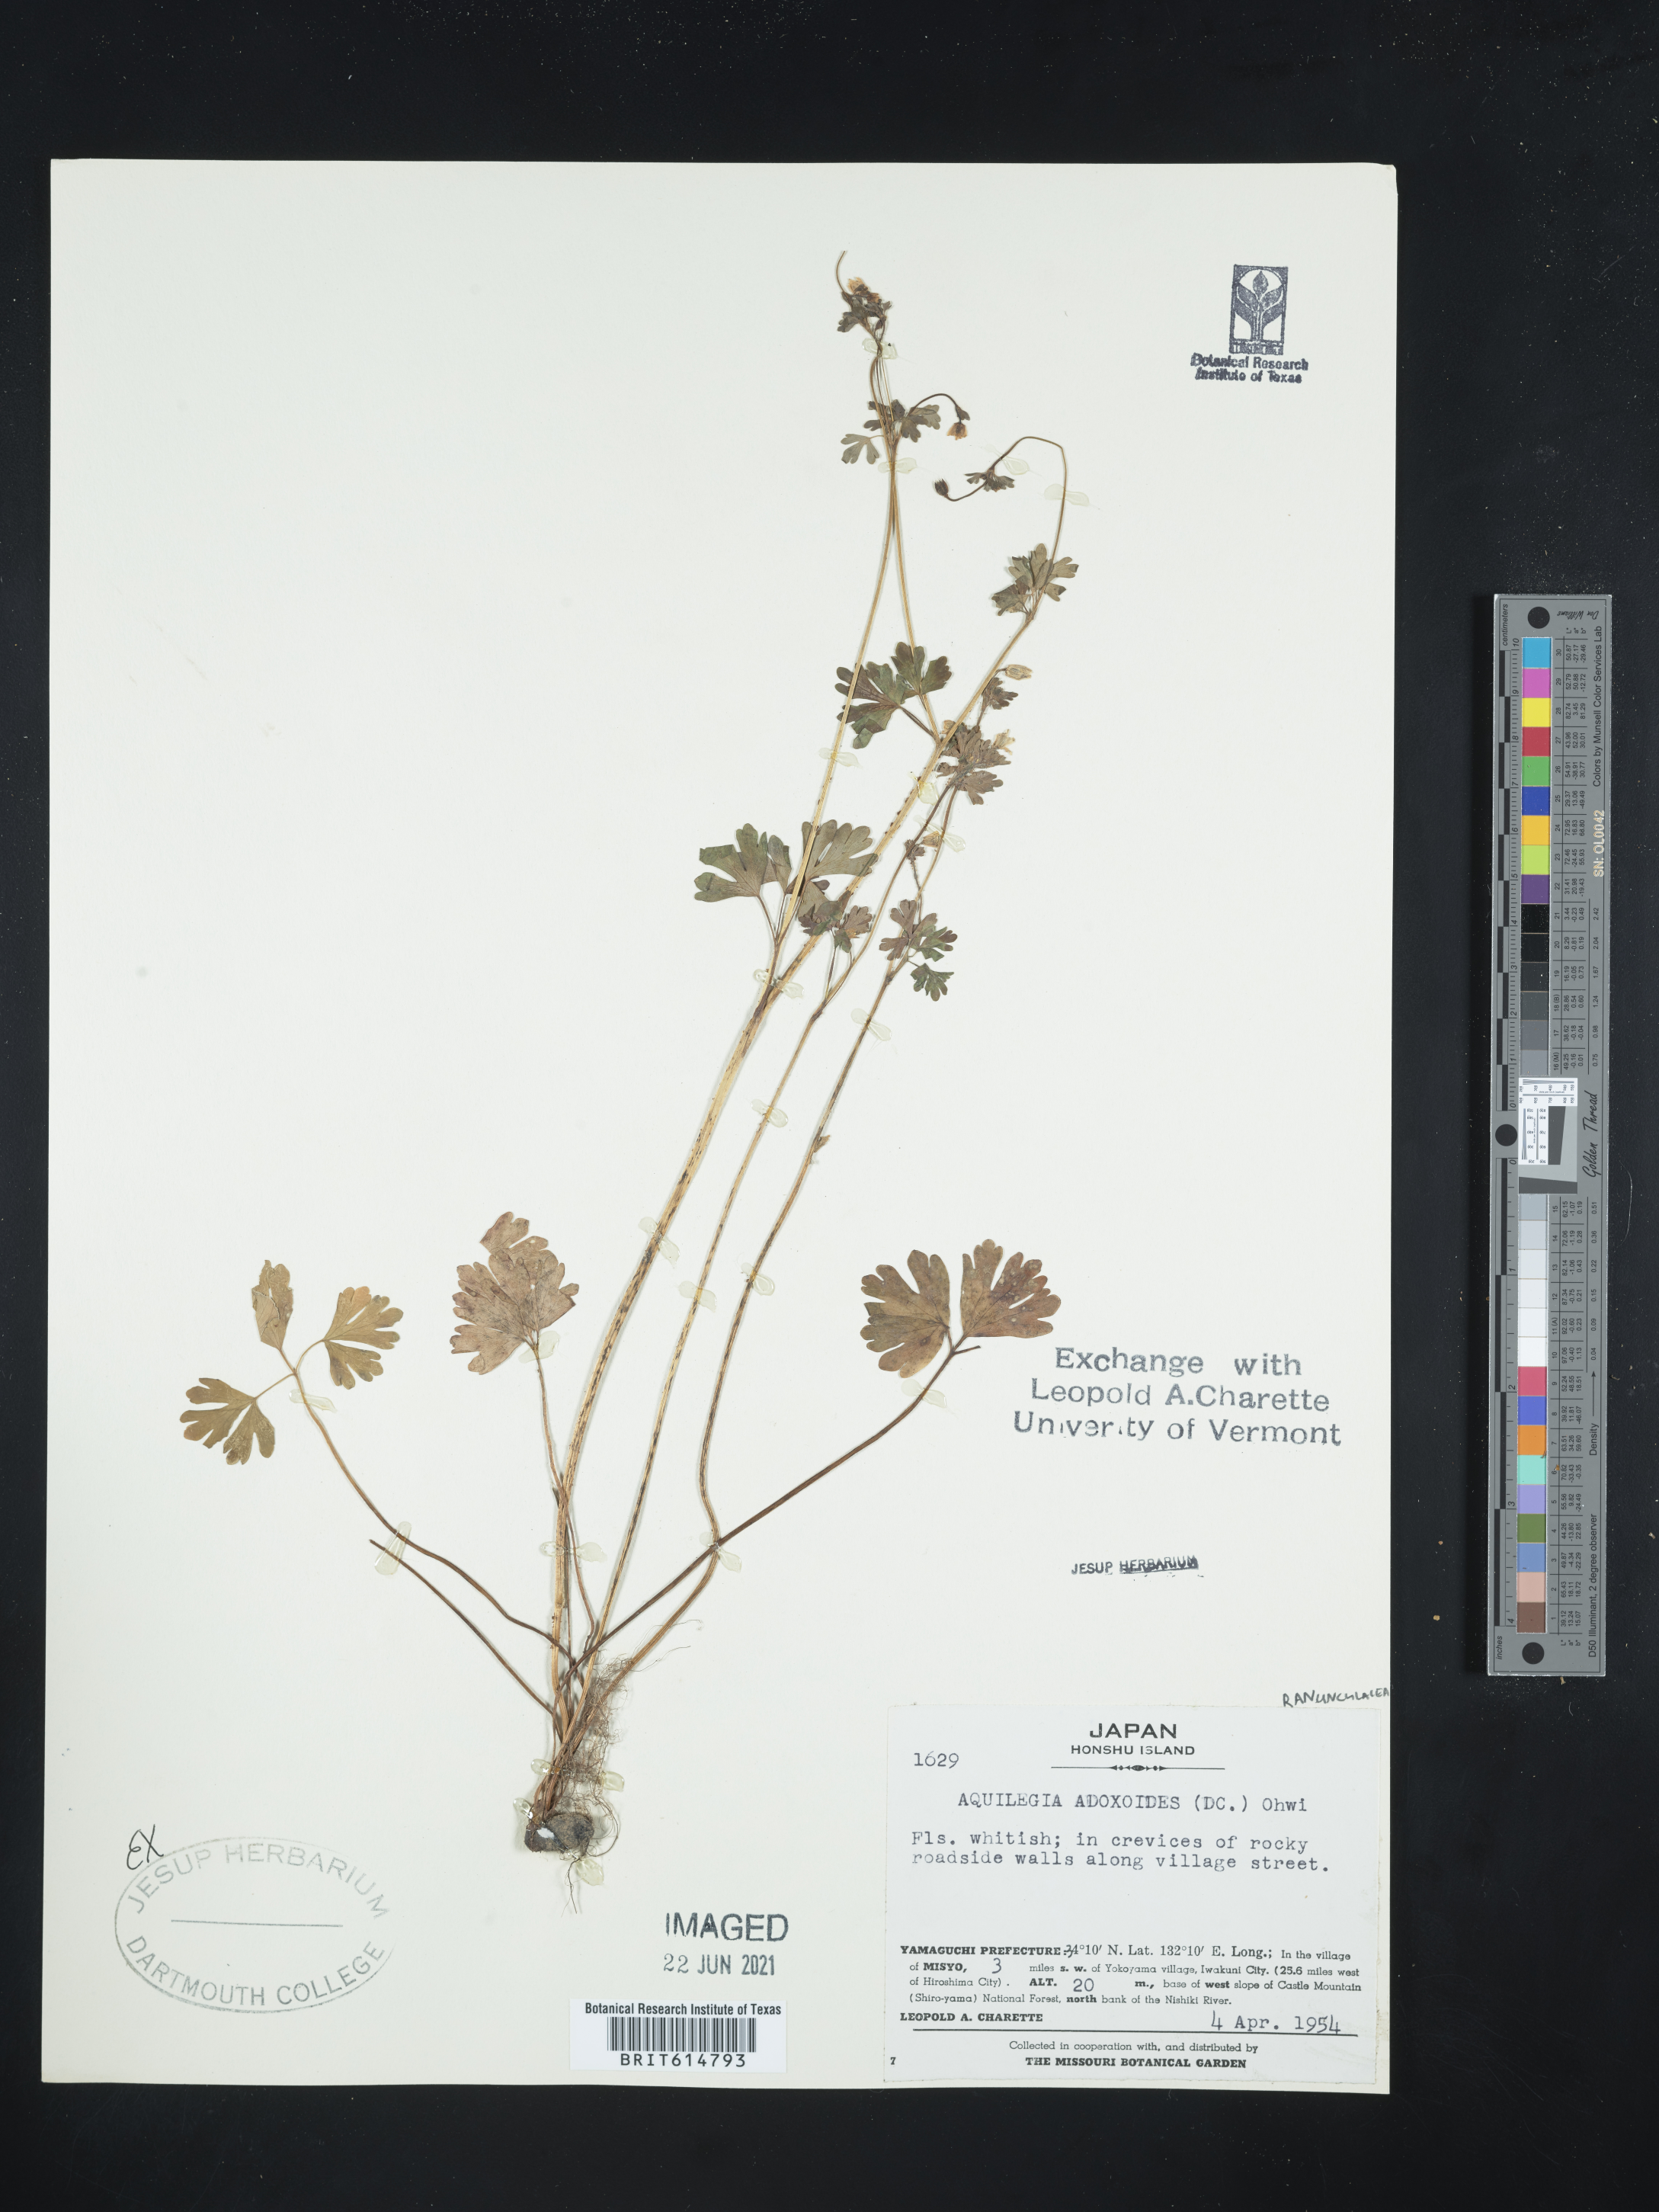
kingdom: Plantae
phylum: Tracheophyta
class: Magnoliopsida
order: Ranunculales
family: Ranunculaceae
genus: Semiaquilegia
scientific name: Semiaquilegia adoxoides
